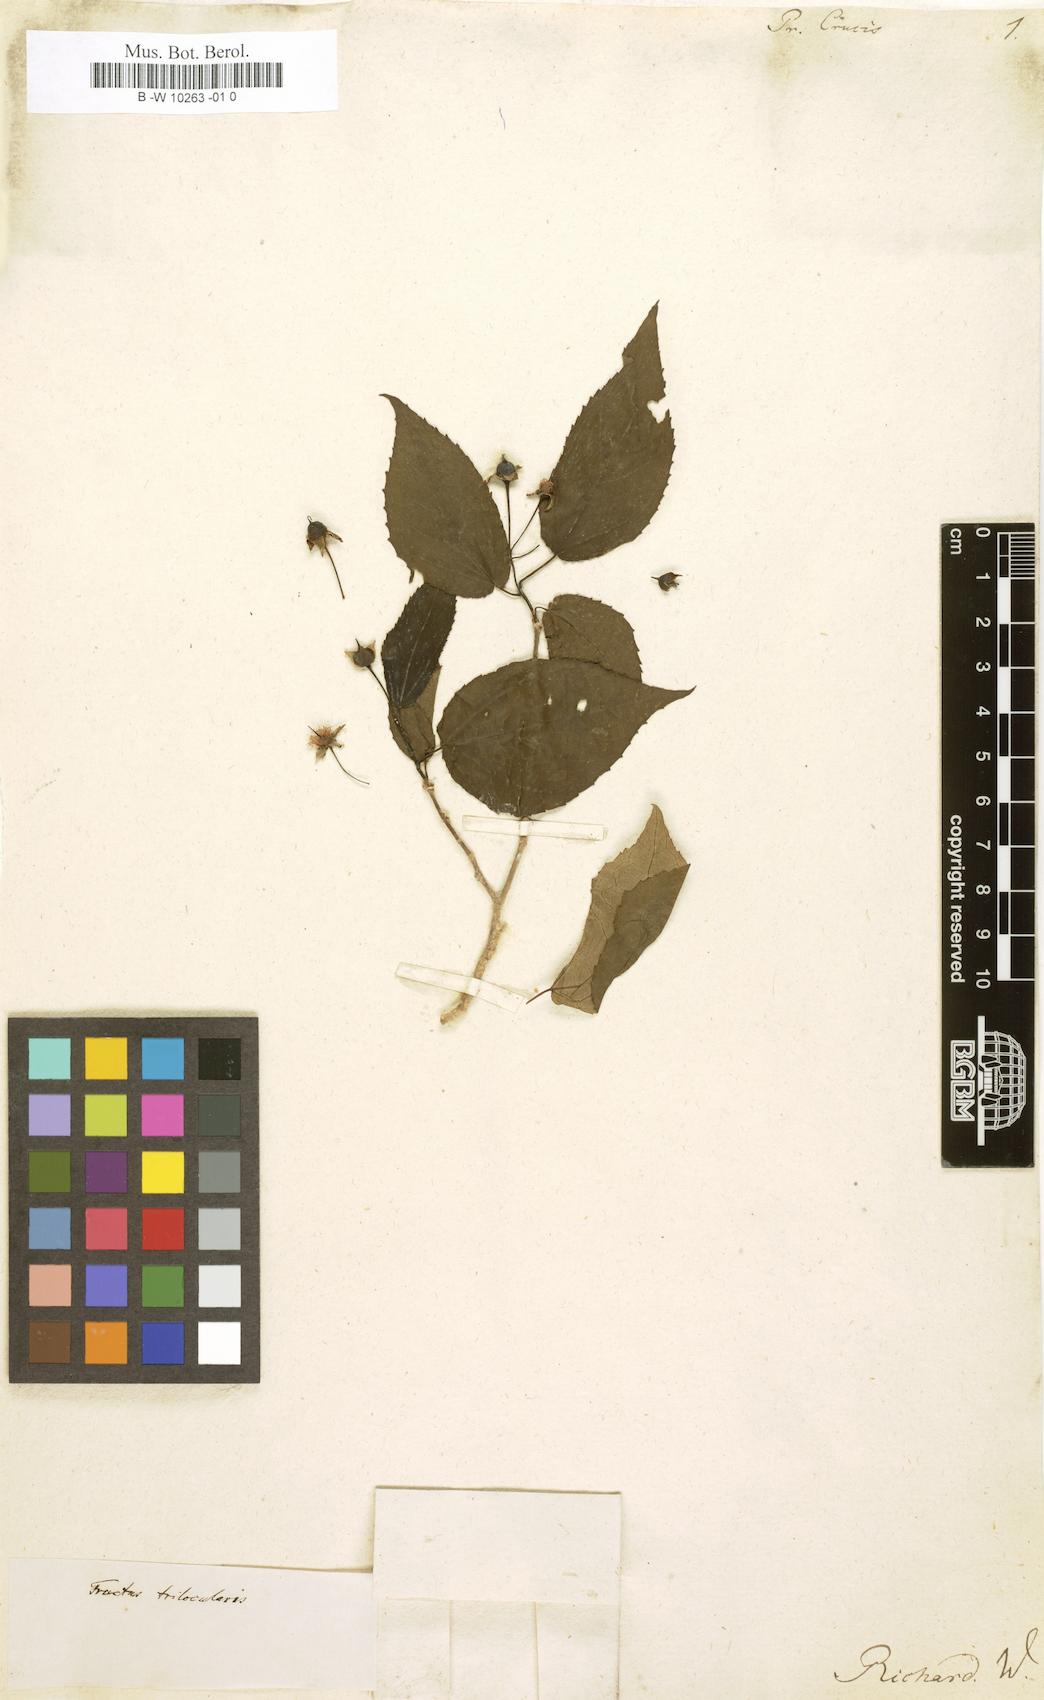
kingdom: Plantae
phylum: Tracheophyta
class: Magnoliopsida
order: Malpighiales
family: Salicaceae
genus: Prockia
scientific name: Prockia crucis
